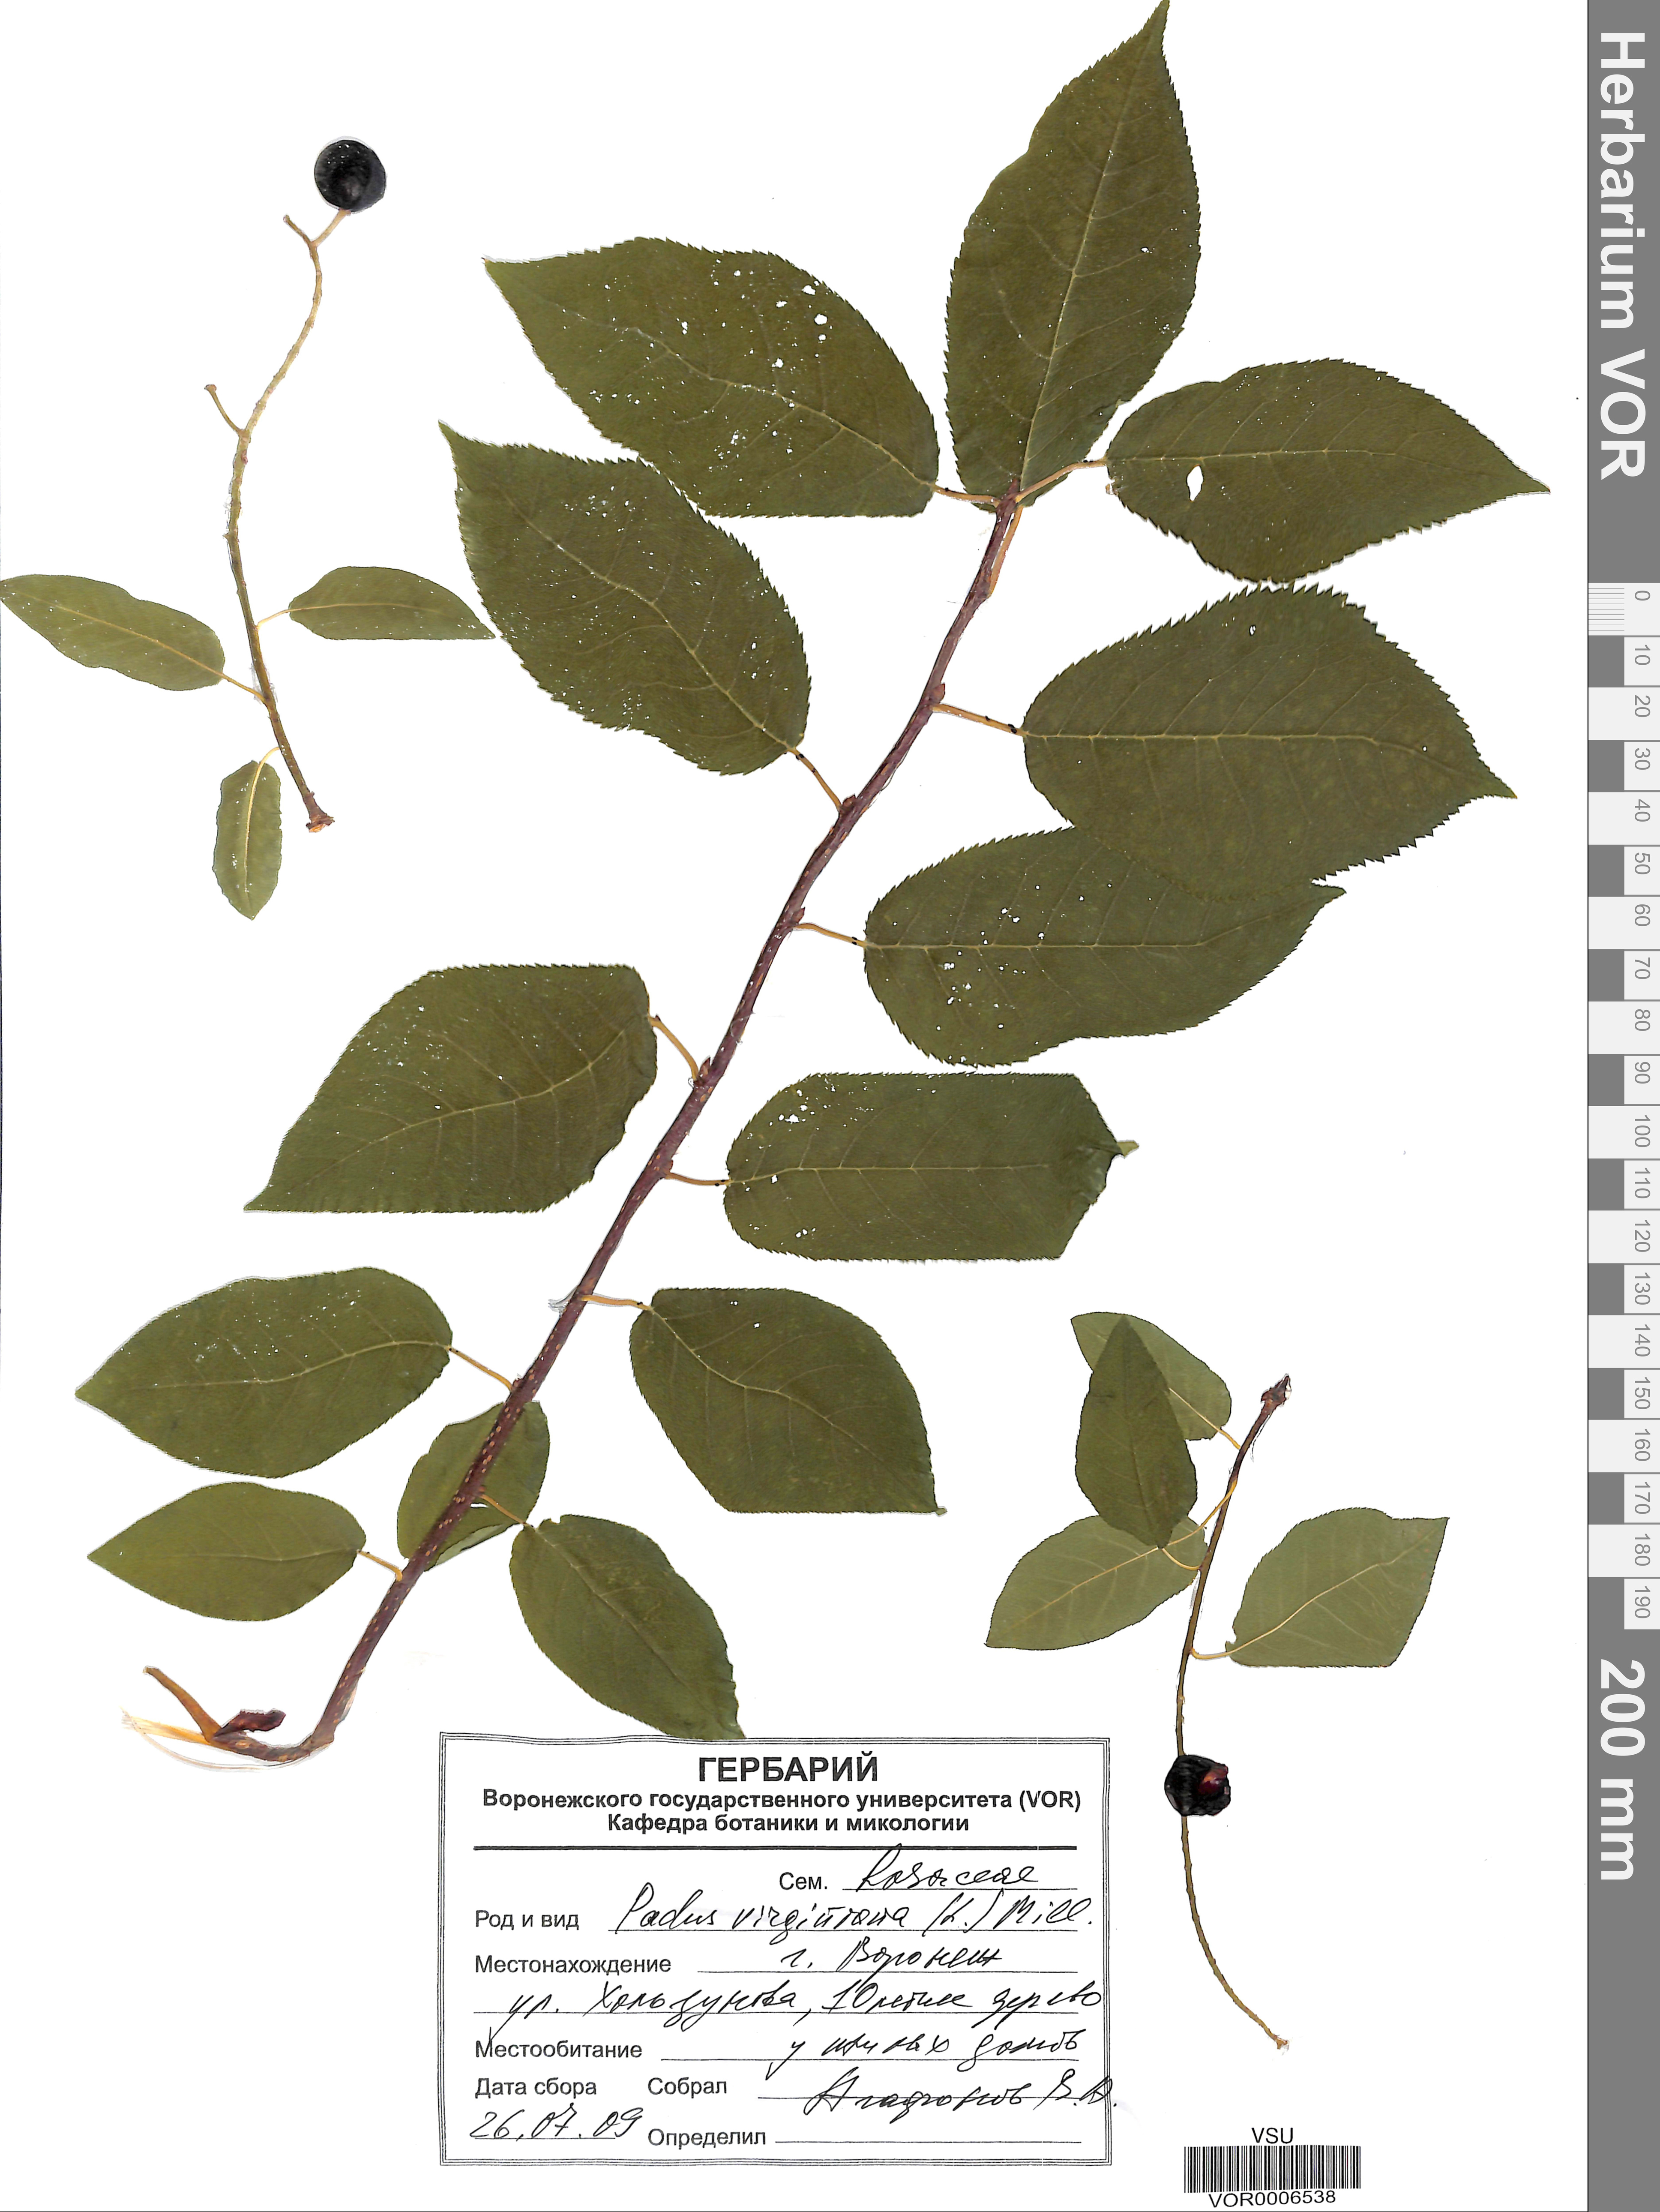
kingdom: Plantae
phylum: Tracheophyta
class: Magnoliopsida
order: Rosales
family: Rosaceae
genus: Prunus
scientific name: Prunus virginiana
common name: Chokecherry
